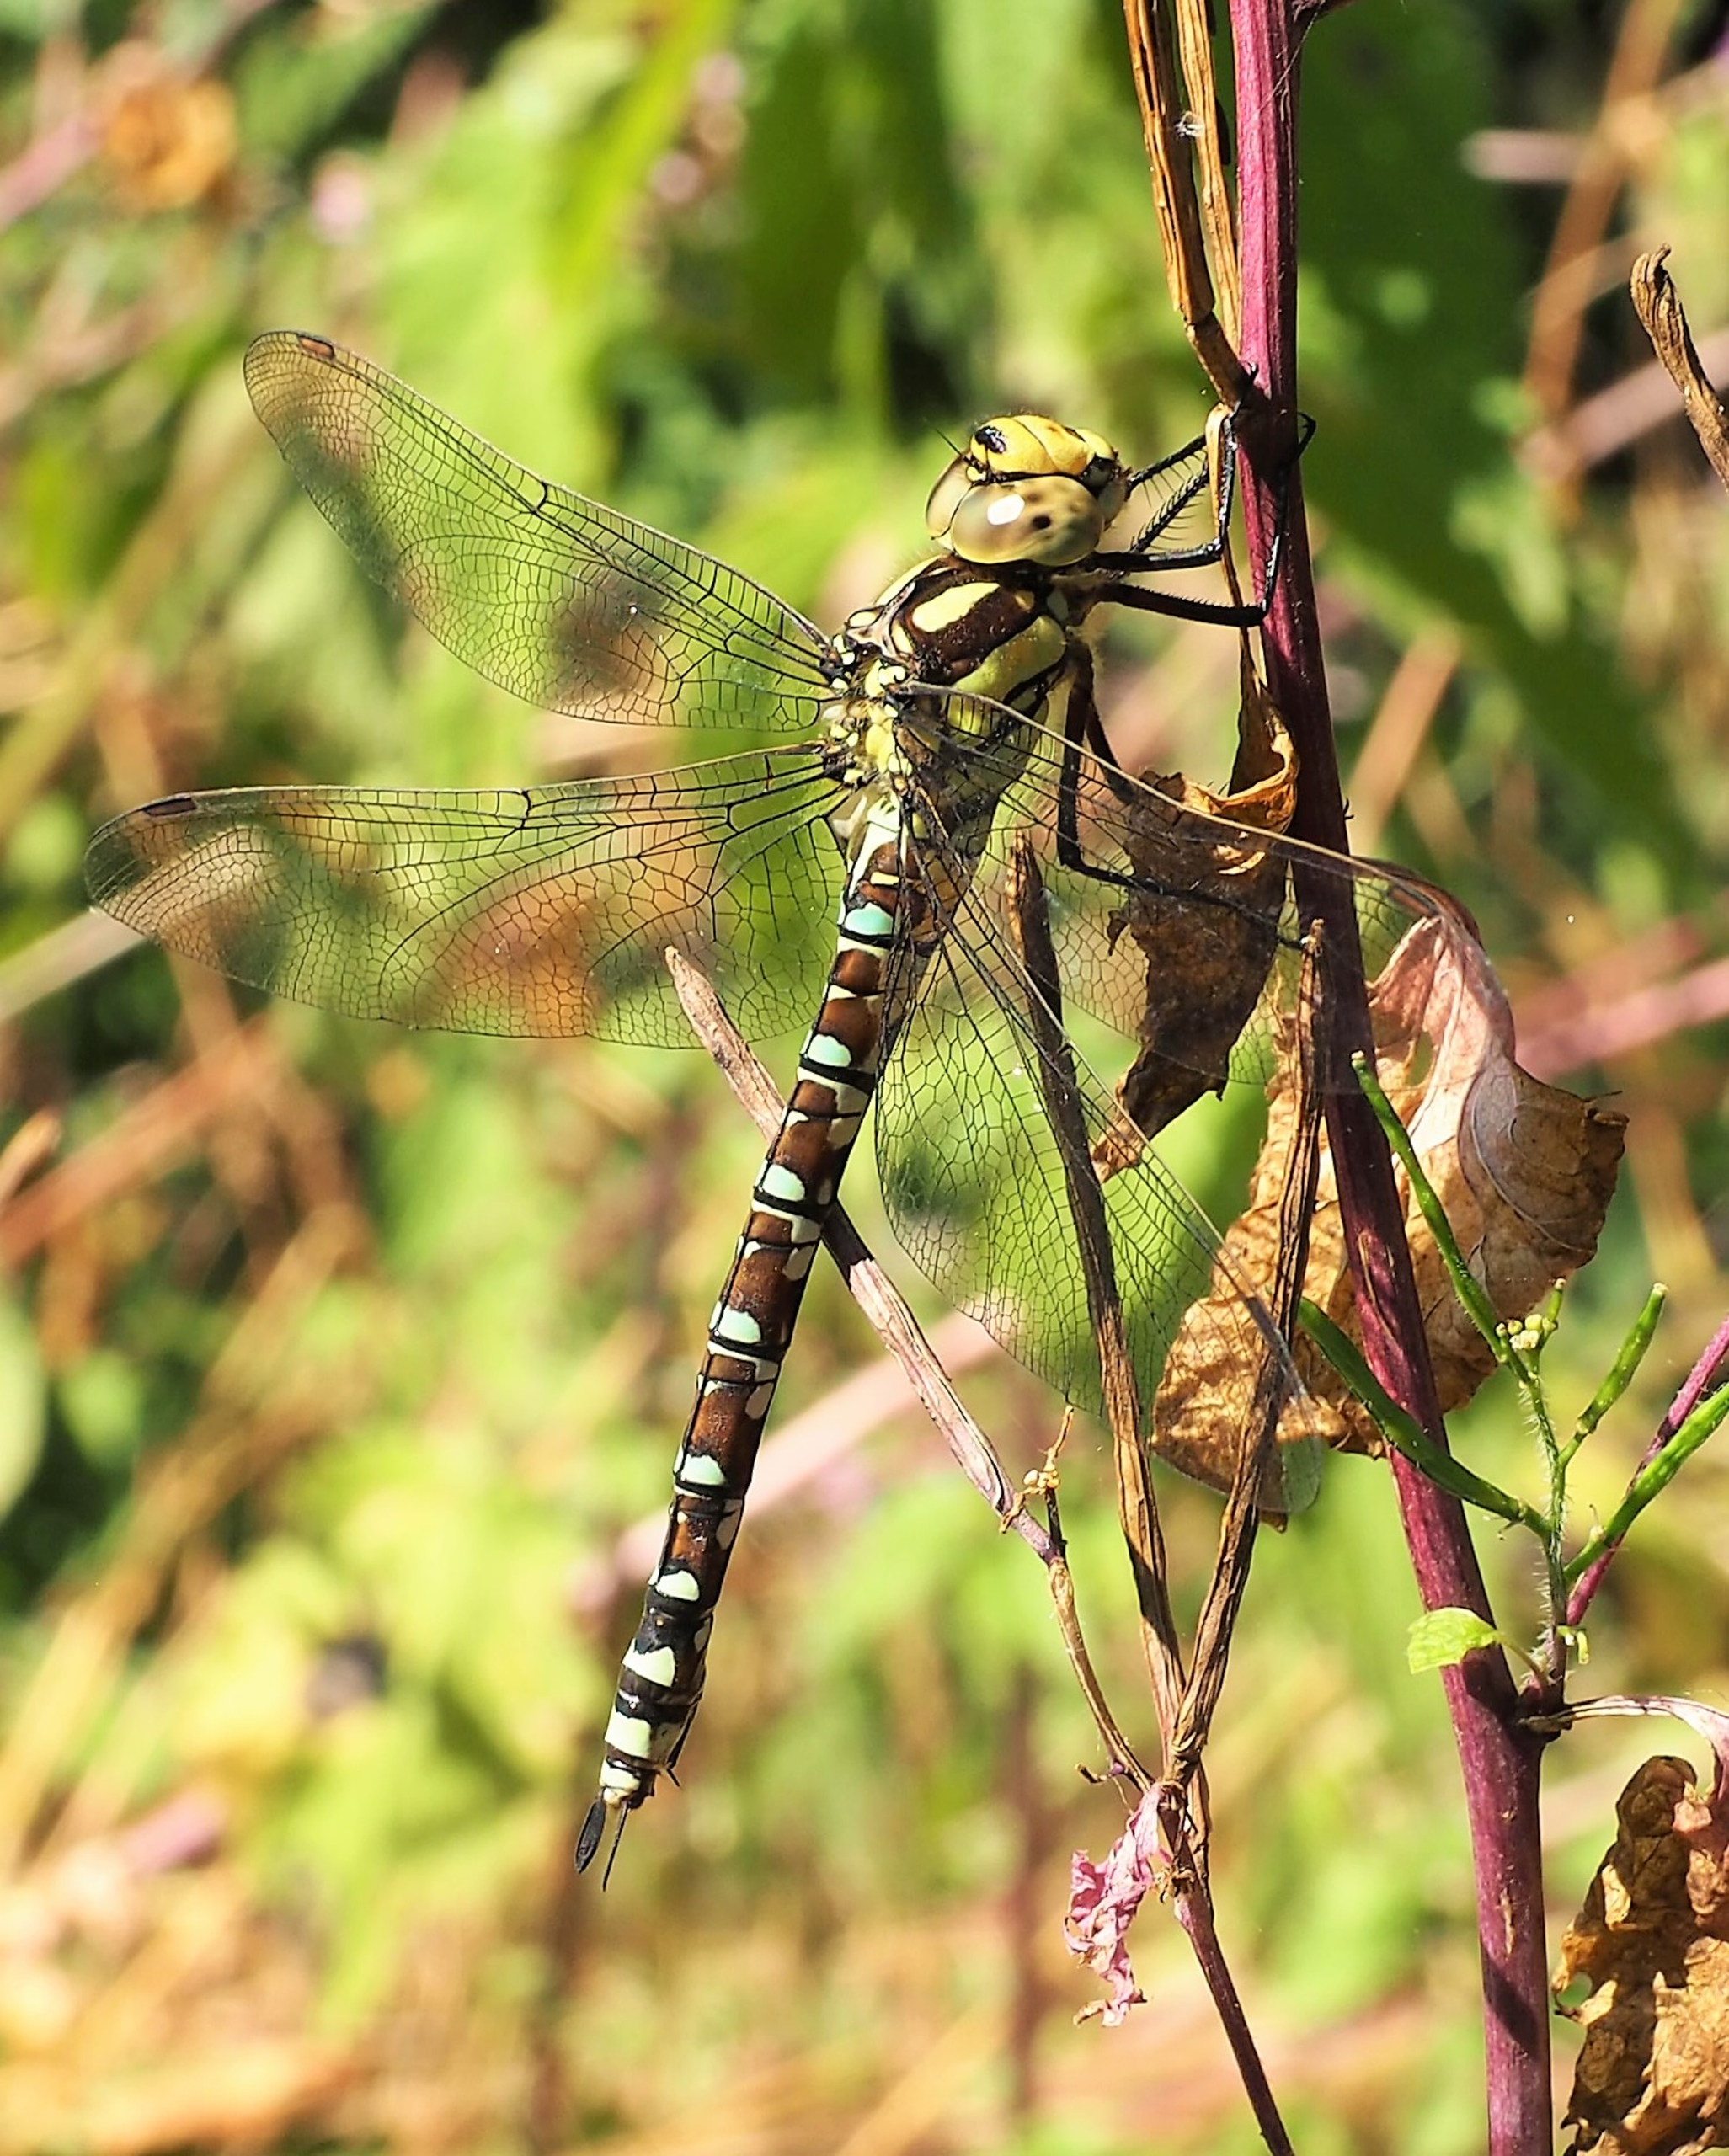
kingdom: Animalia
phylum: Arthropoda
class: Insecta
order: Odonata
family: Aeshnidae
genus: Aeshna
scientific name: Aeshna cyanea
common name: Blå mosaikguldsmed
